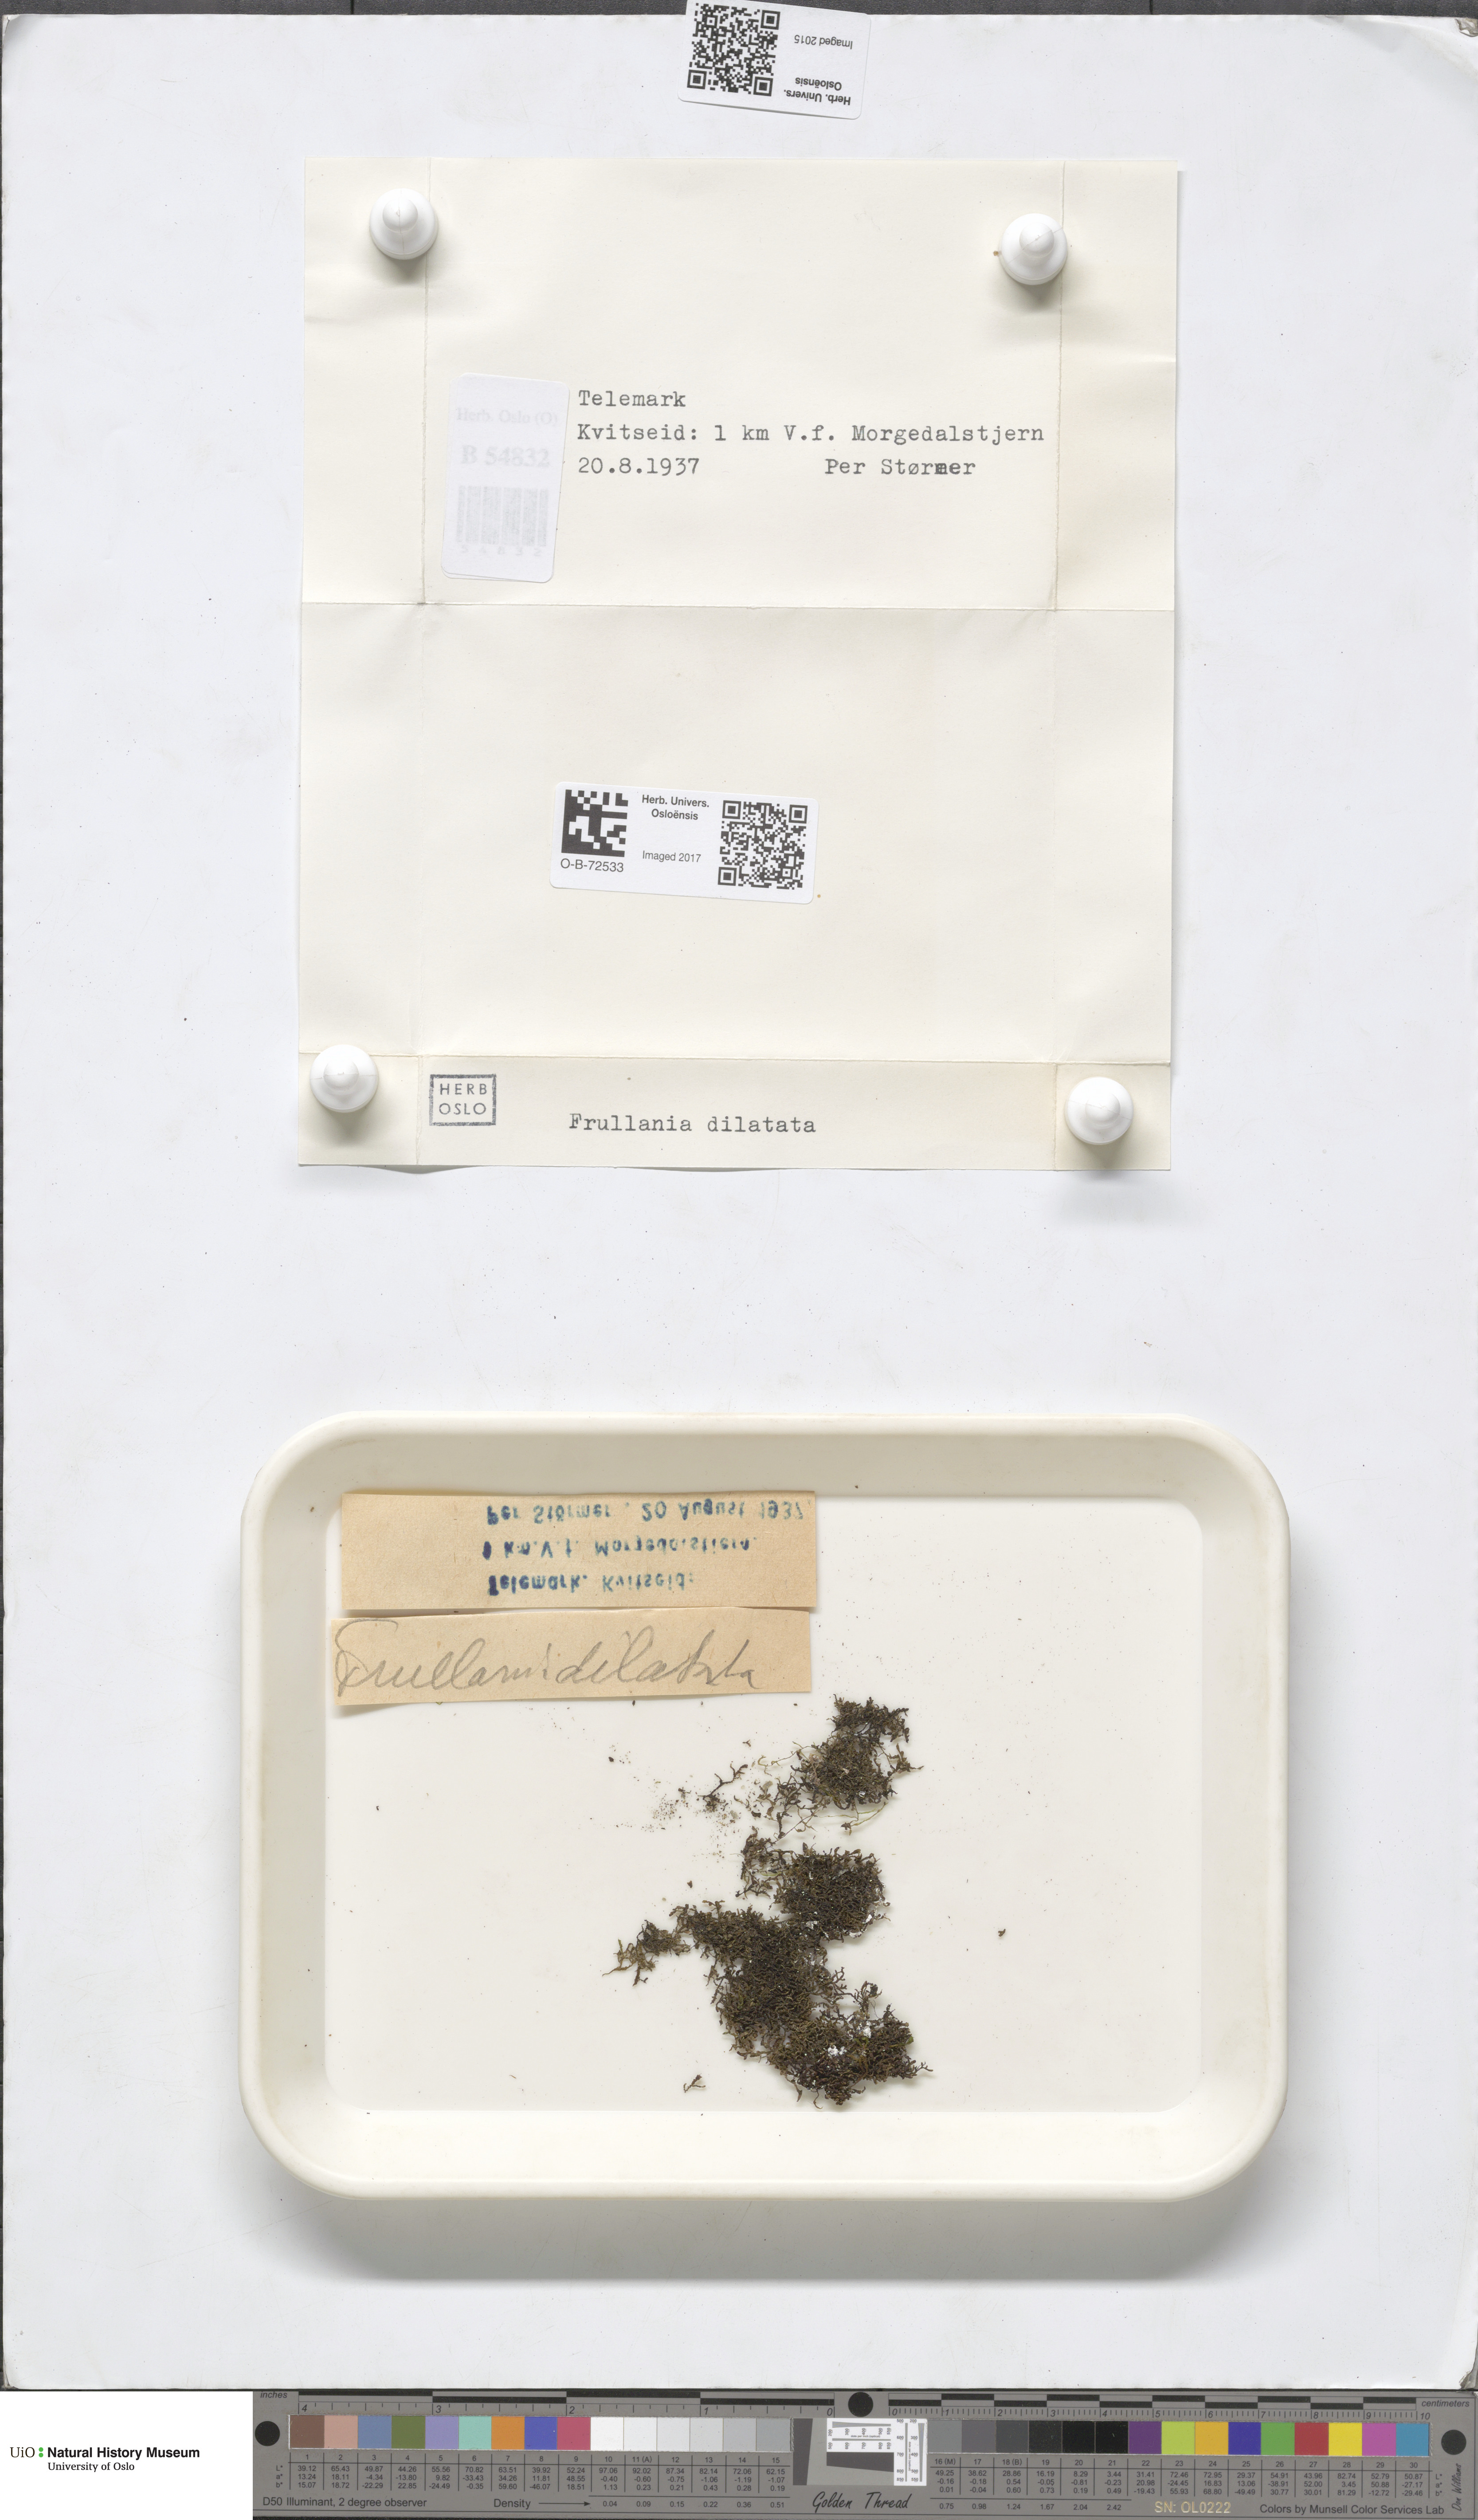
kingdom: Plantae
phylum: Marchantiophyta
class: Jungermanniopsida
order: Porellales
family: Frullaniaceae
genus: Frullania
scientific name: Frullania dilatata
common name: Dilated scalewort
